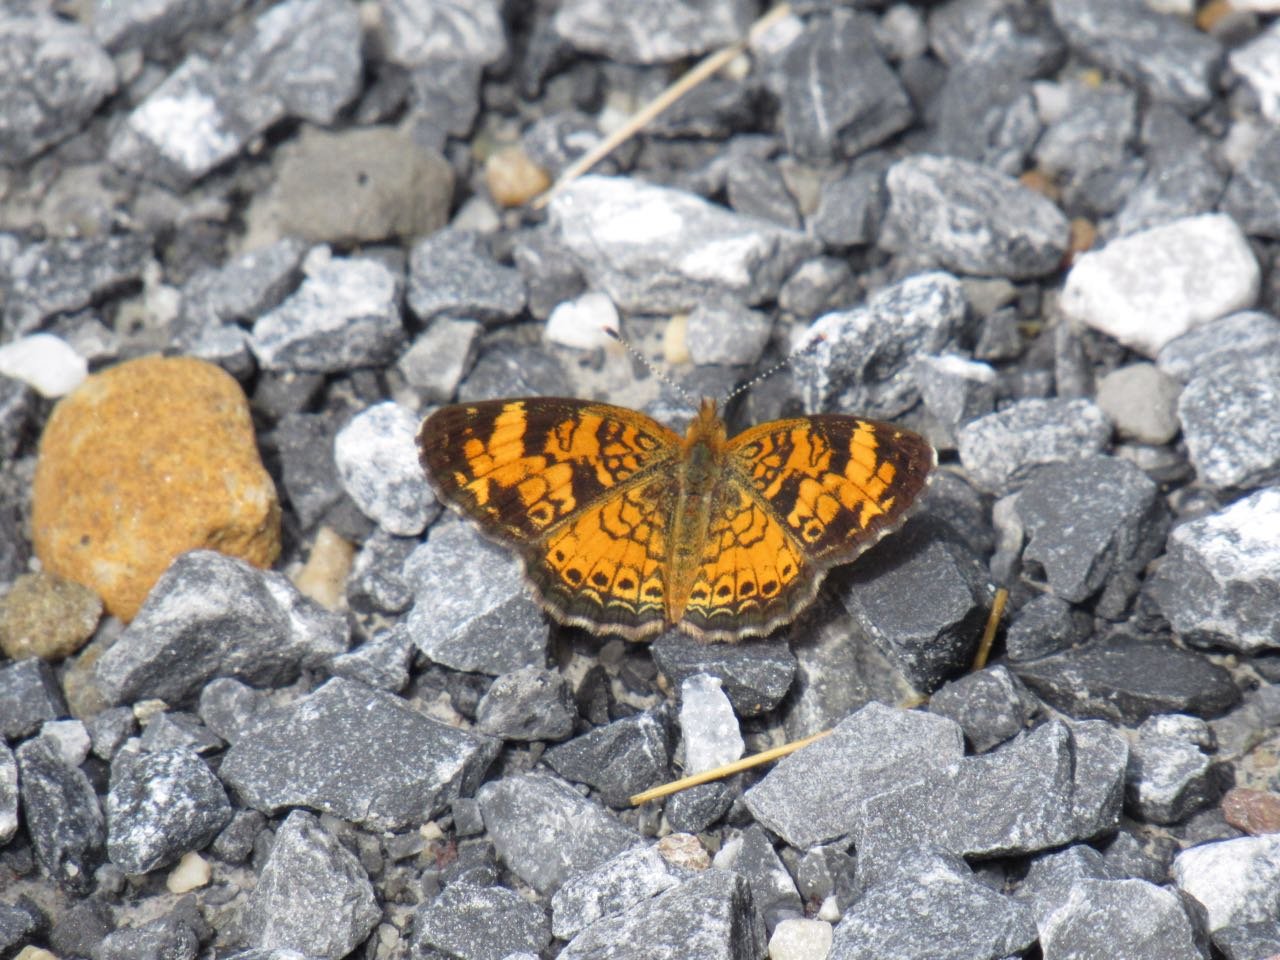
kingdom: Animalia
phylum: Arthropoda
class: Insecta
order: Lepidoptera
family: Nymphalidae
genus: Phyciodes
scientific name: Phyciodes tharos
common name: Pearl Crescent
